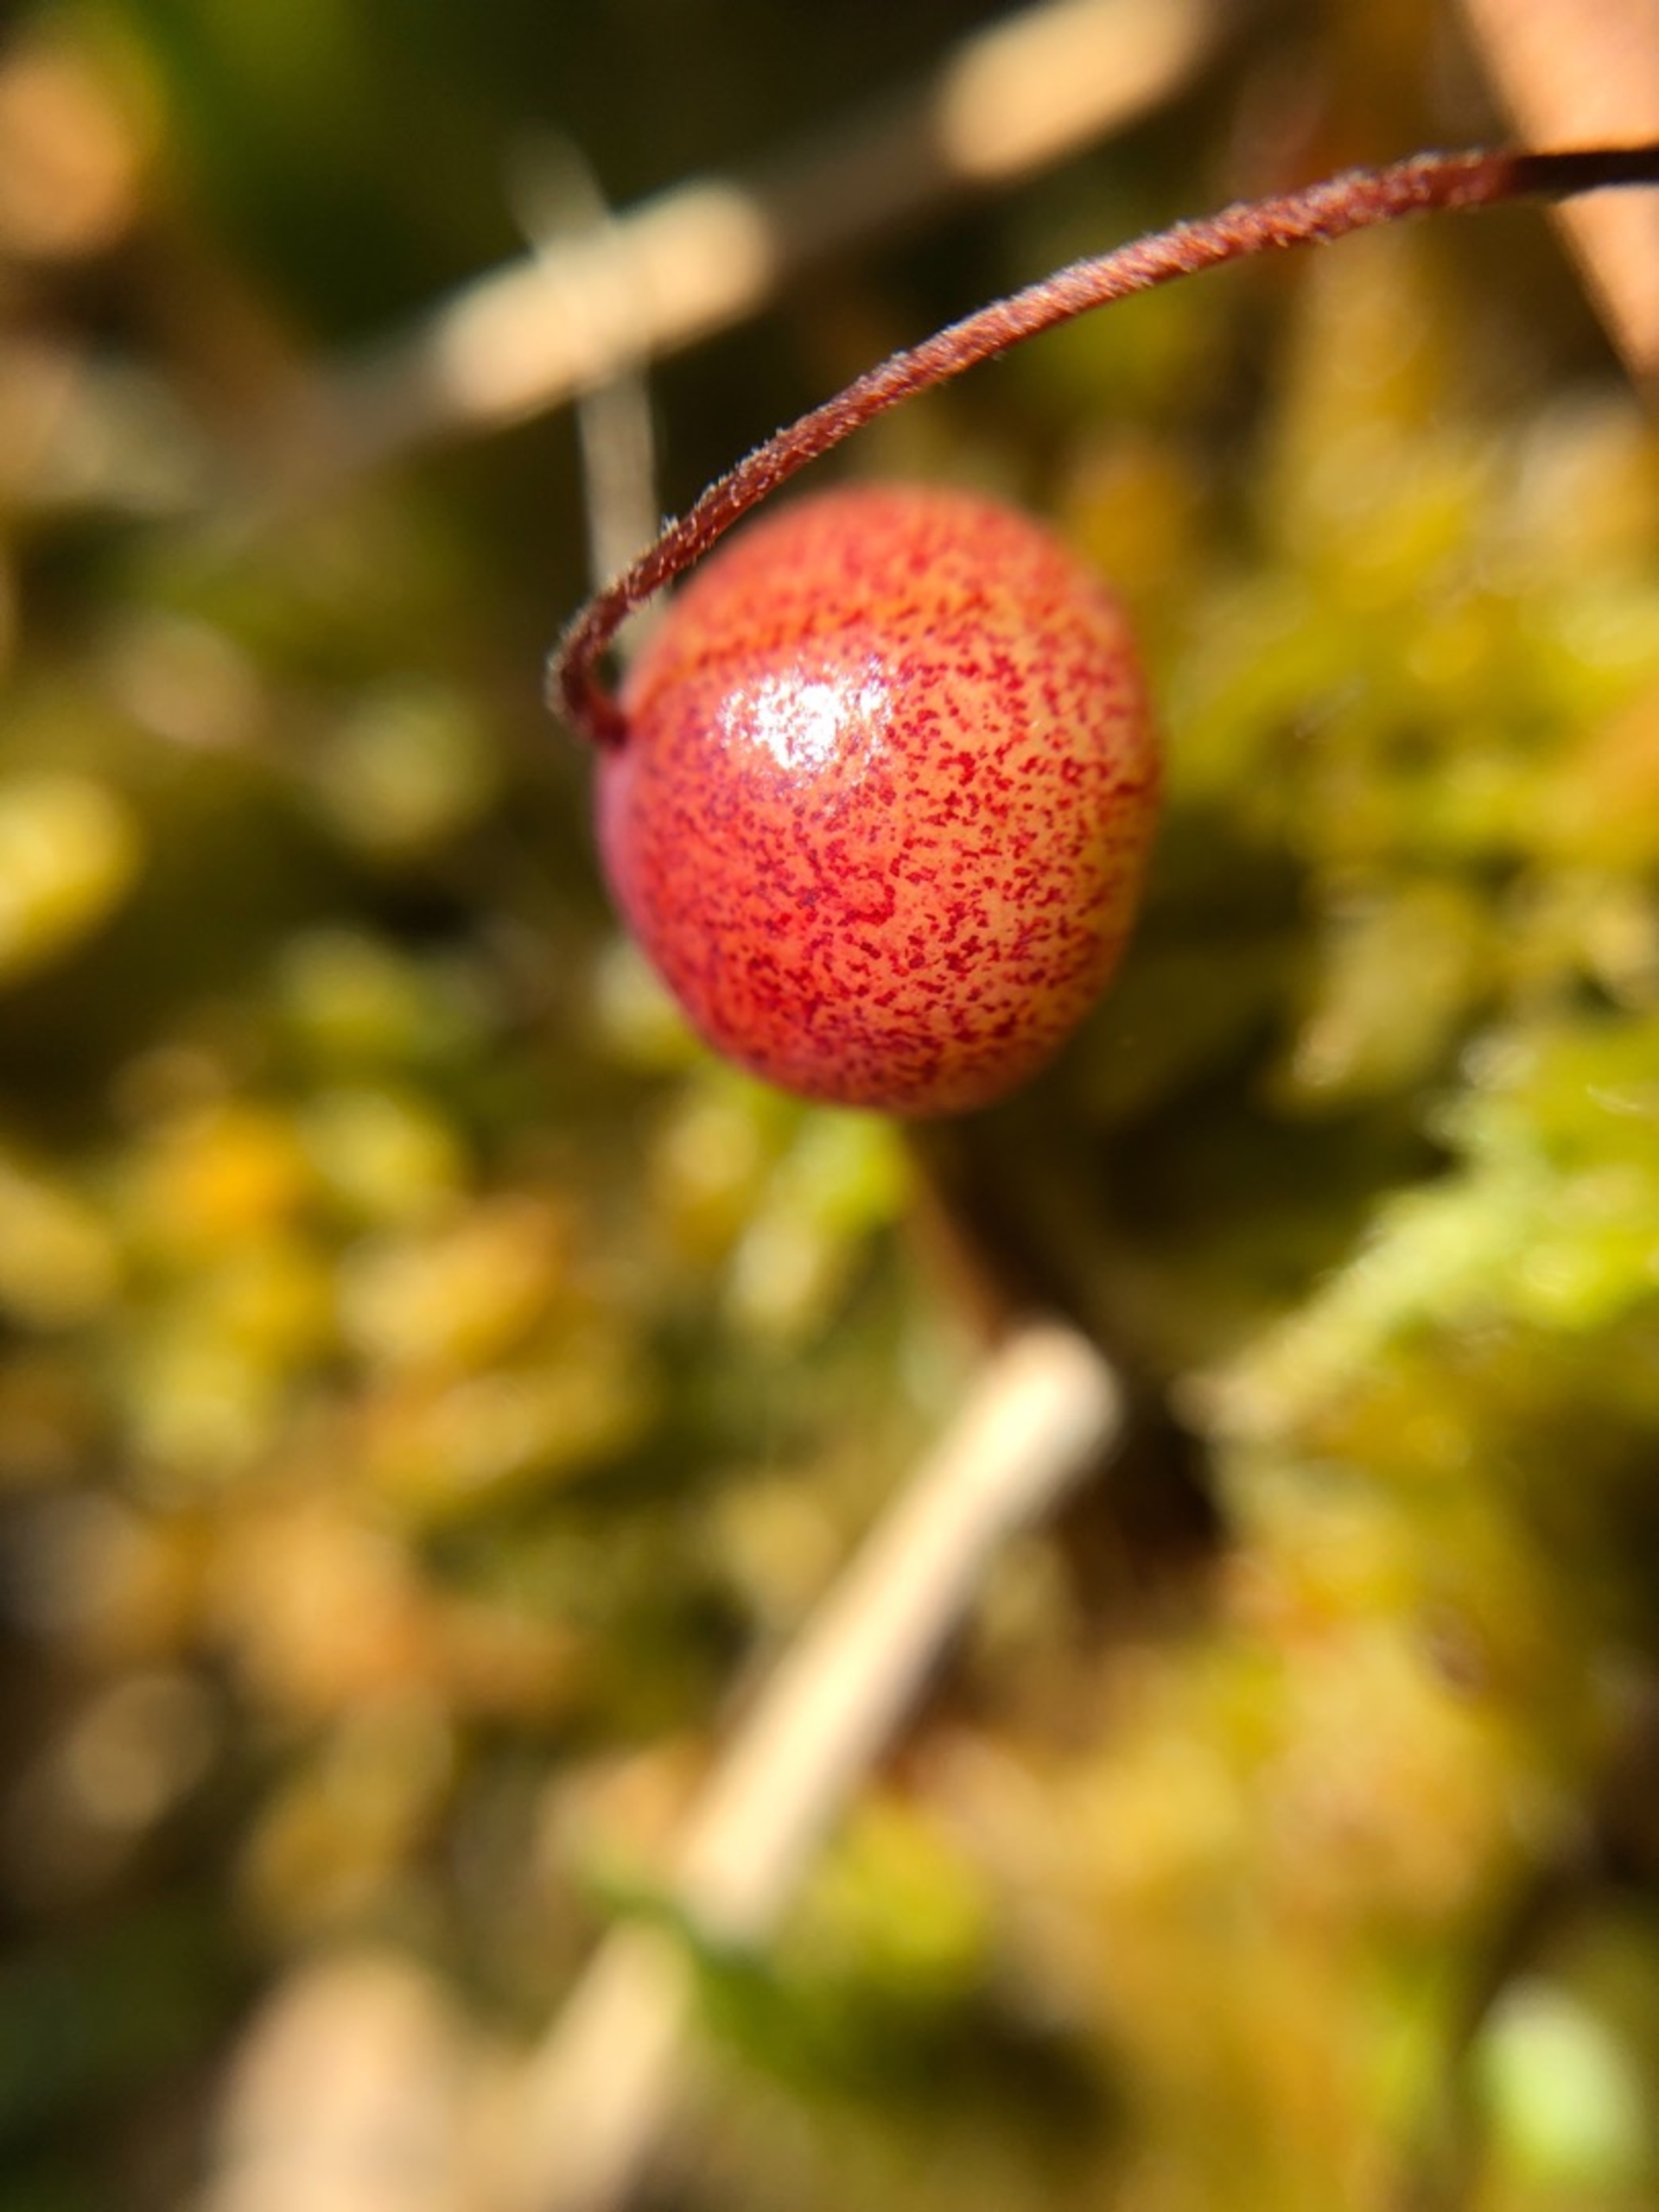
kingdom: Plantae
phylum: Tracheophyta
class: Magnoliopsida
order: Ericales
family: Ericaceae
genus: Vaccinium
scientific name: Vaccinium oxycoccos
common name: Tranebær
